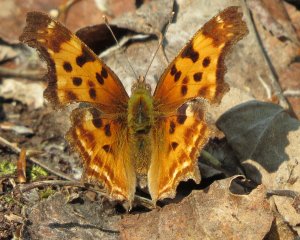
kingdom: Animalia
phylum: Arthropoda
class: Insecta
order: Lepidoptera
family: Nymphalidae
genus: Polygonia
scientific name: Polygonia satyrus
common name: Satyr Comma
